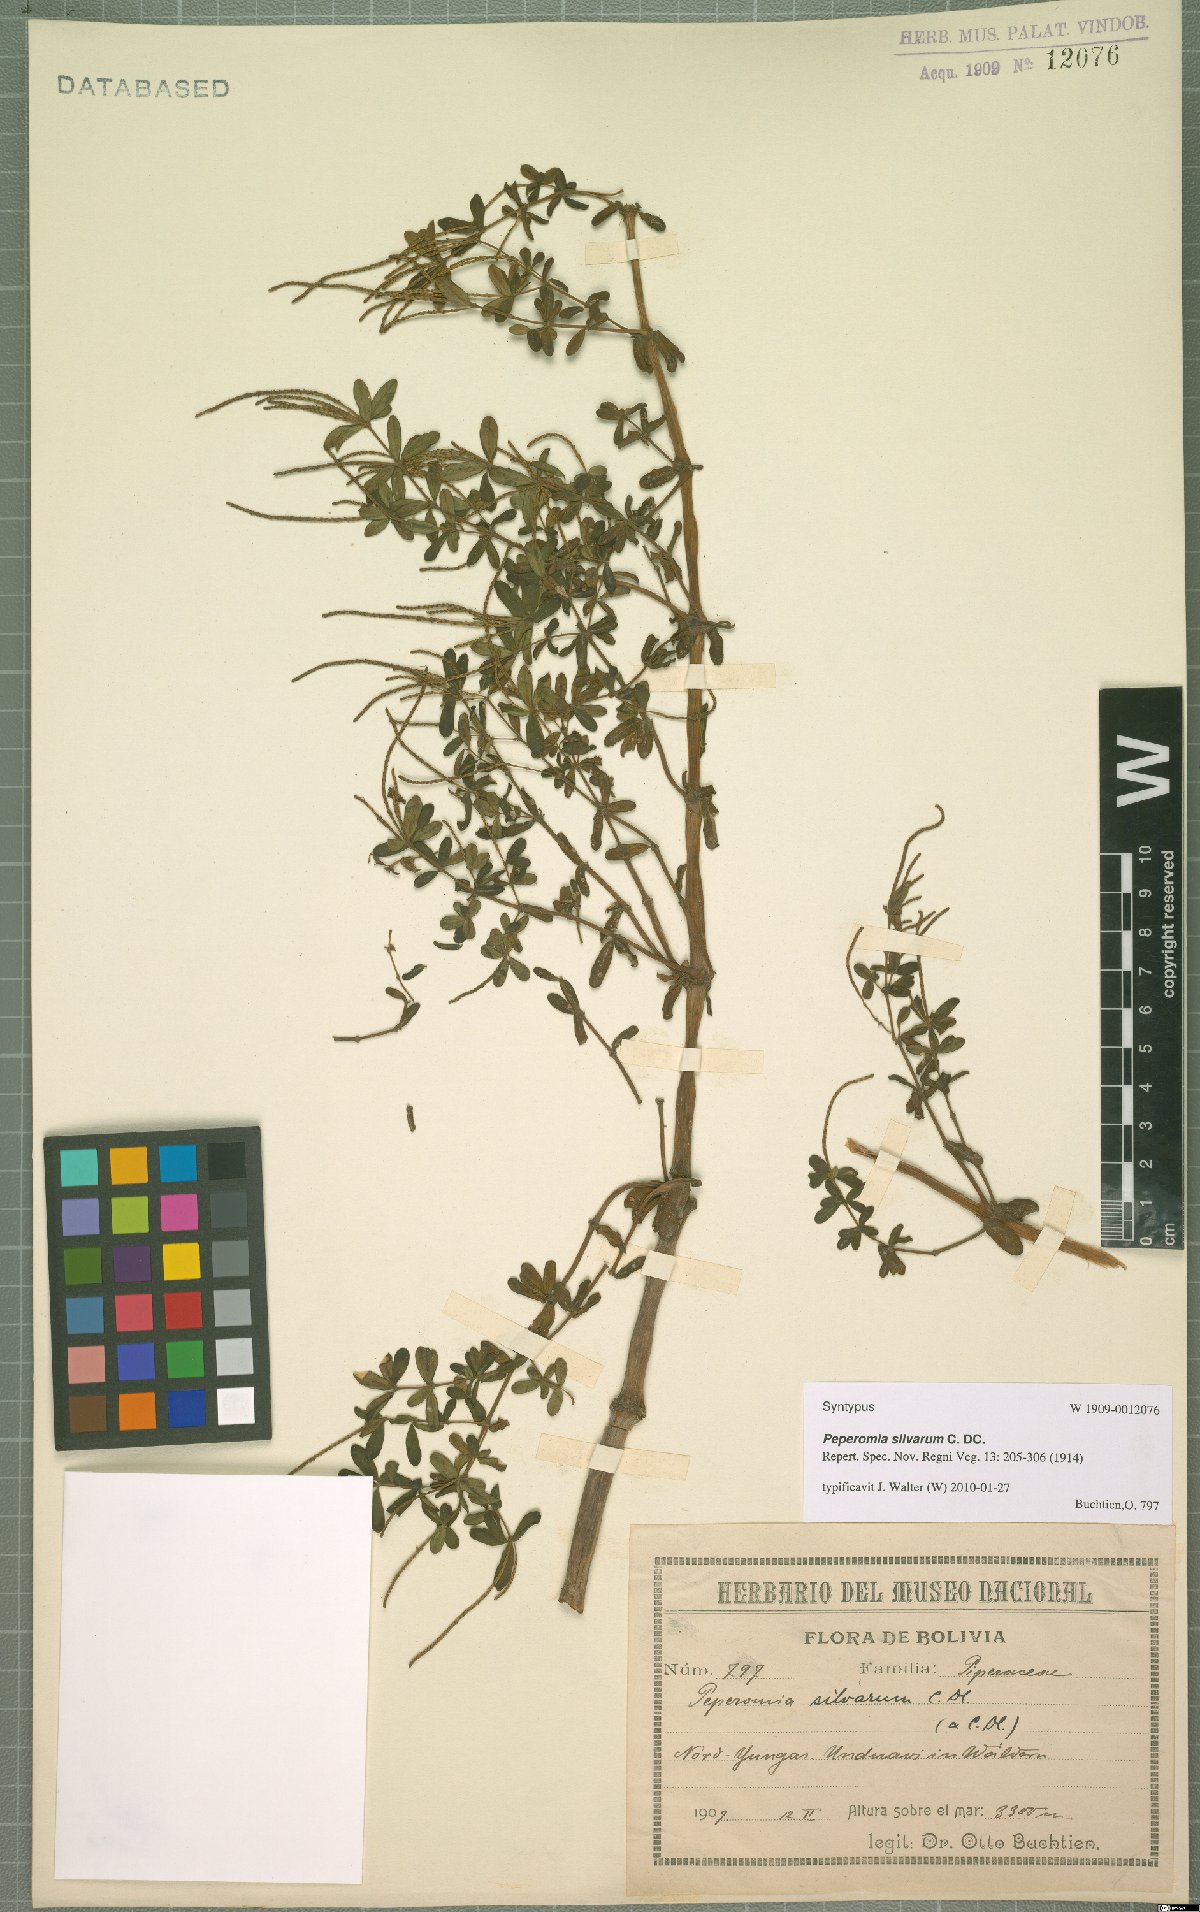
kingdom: Plantae
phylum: Tracheophyta
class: Magnoliopsida
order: Piperales
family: Piperaceae
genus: Peperomia
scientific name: Peperomia silvarum
